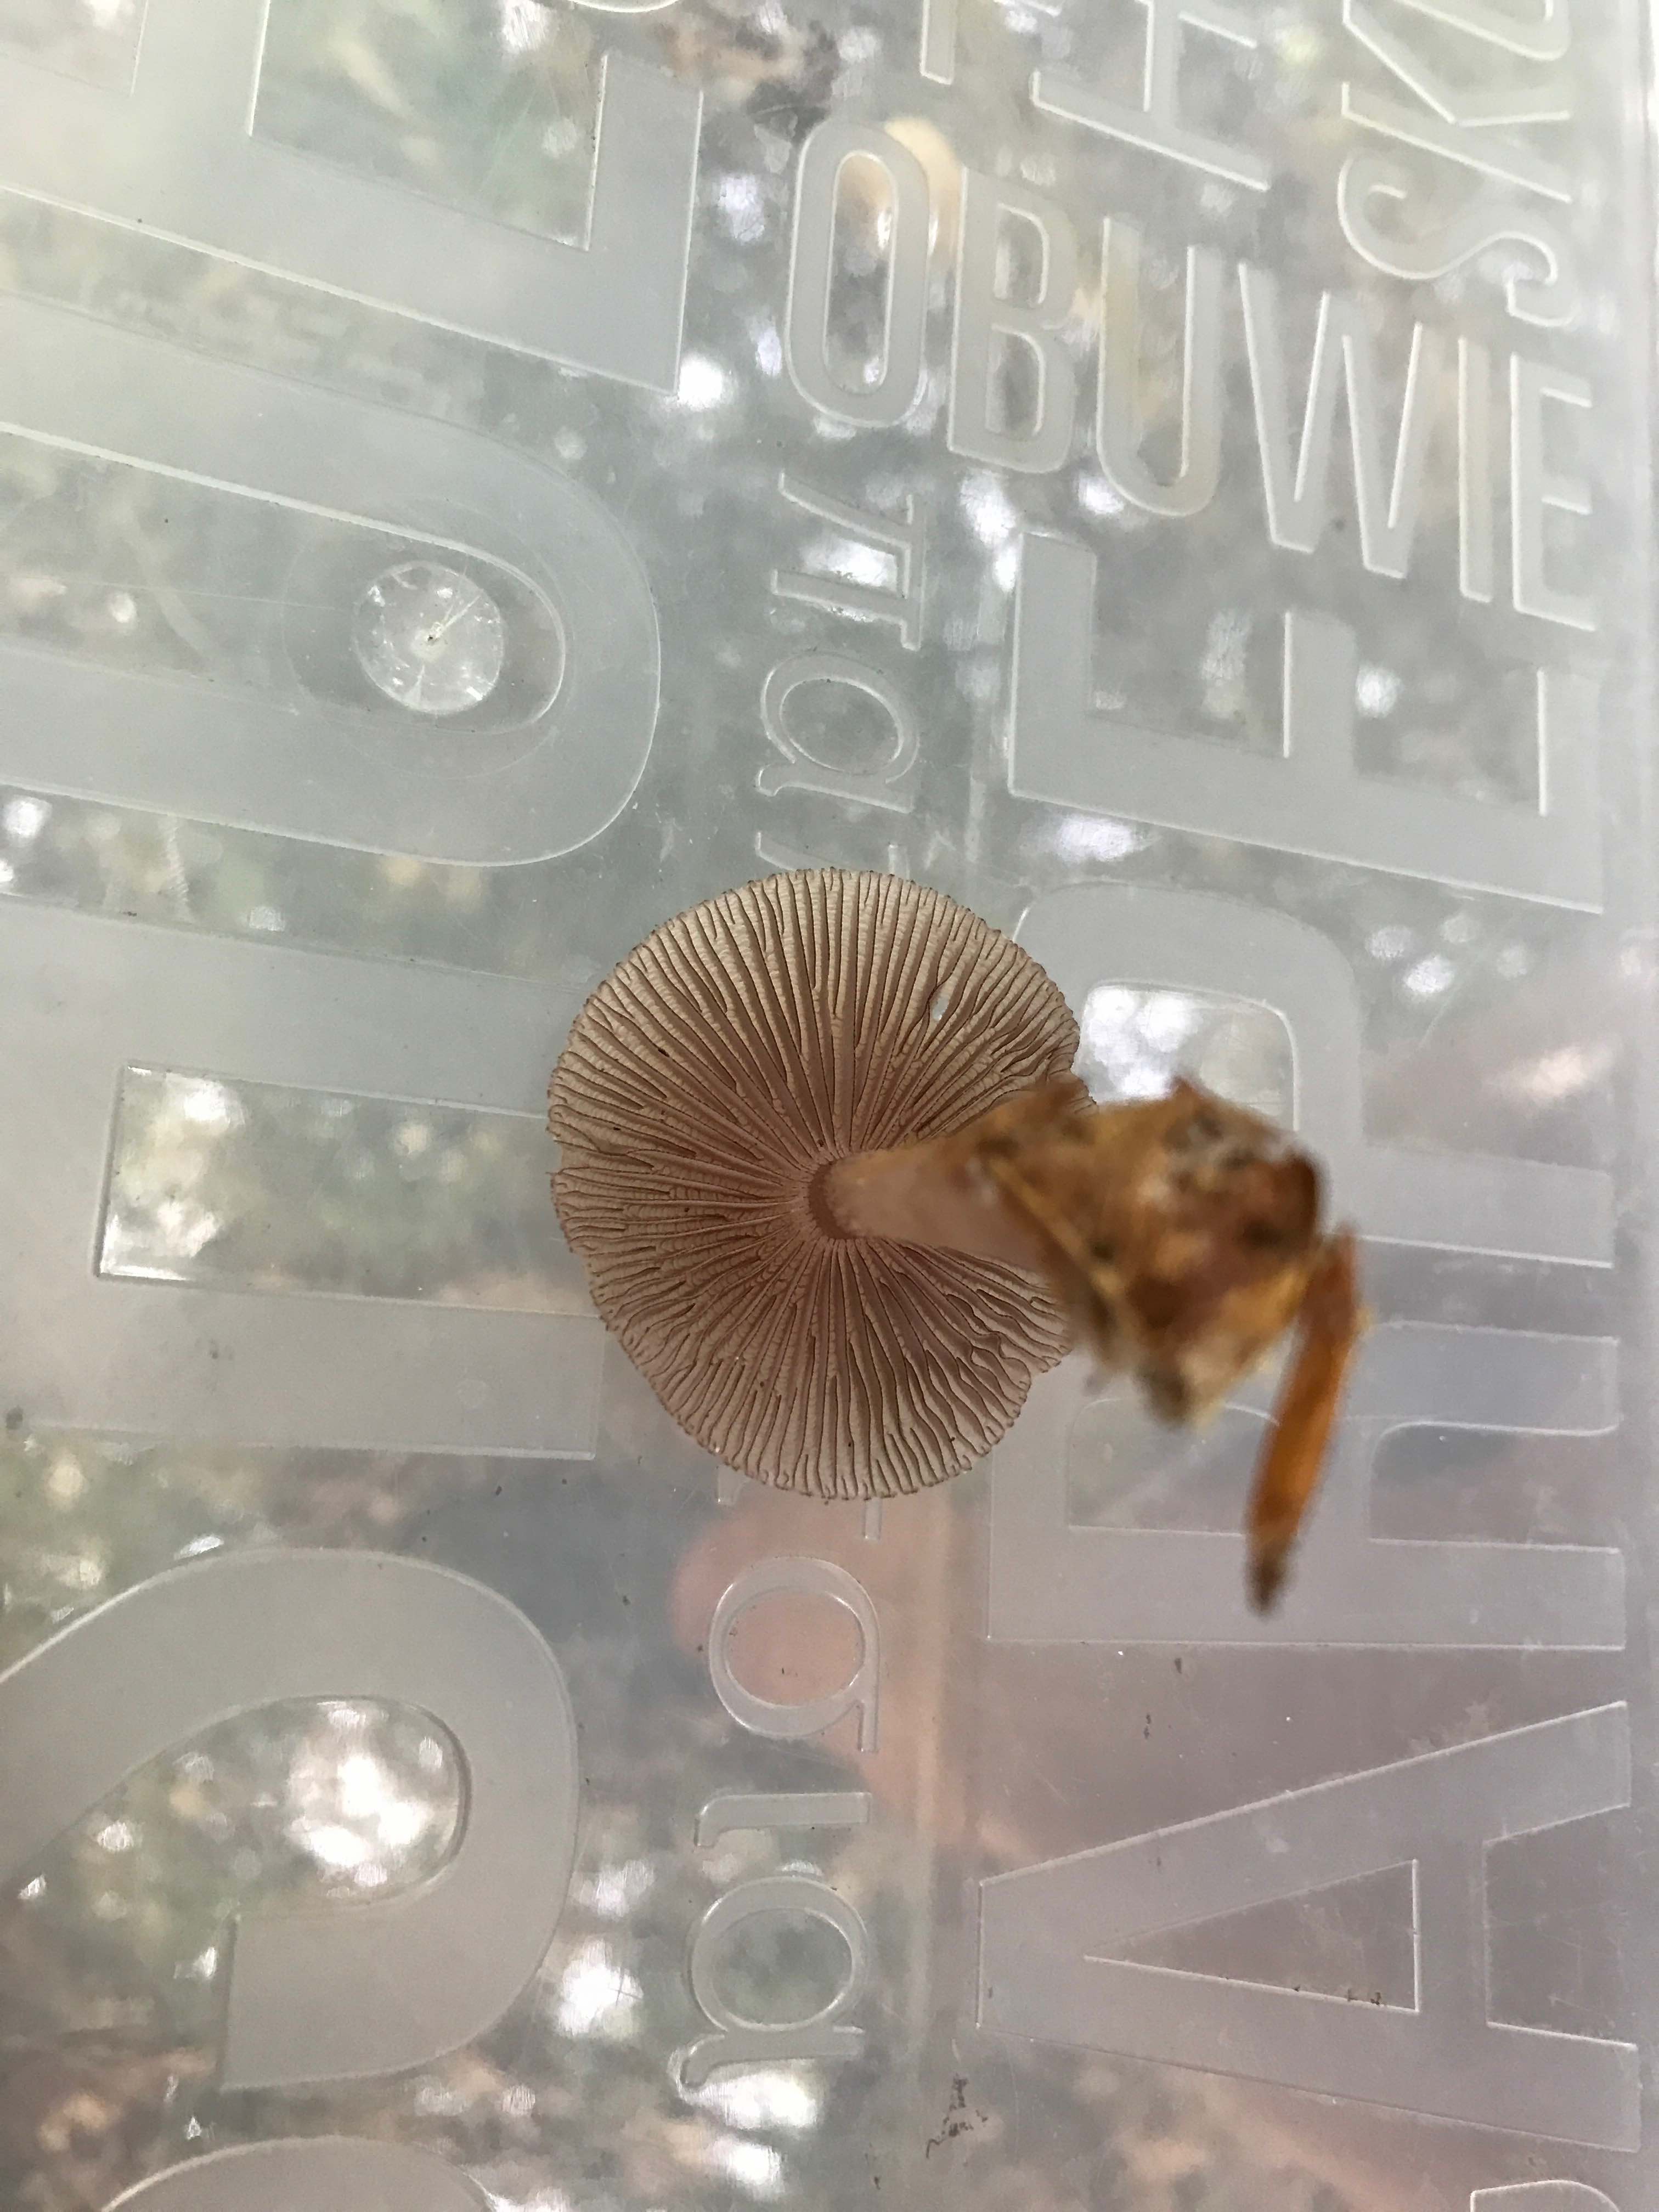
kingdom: Fungi
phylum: Basidiomycota
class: Agaricomycetes
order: Agaricales
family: Mycenaceae
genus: Mycena
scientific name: Mycena pelianthina
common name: mørkbladet huesvamp
